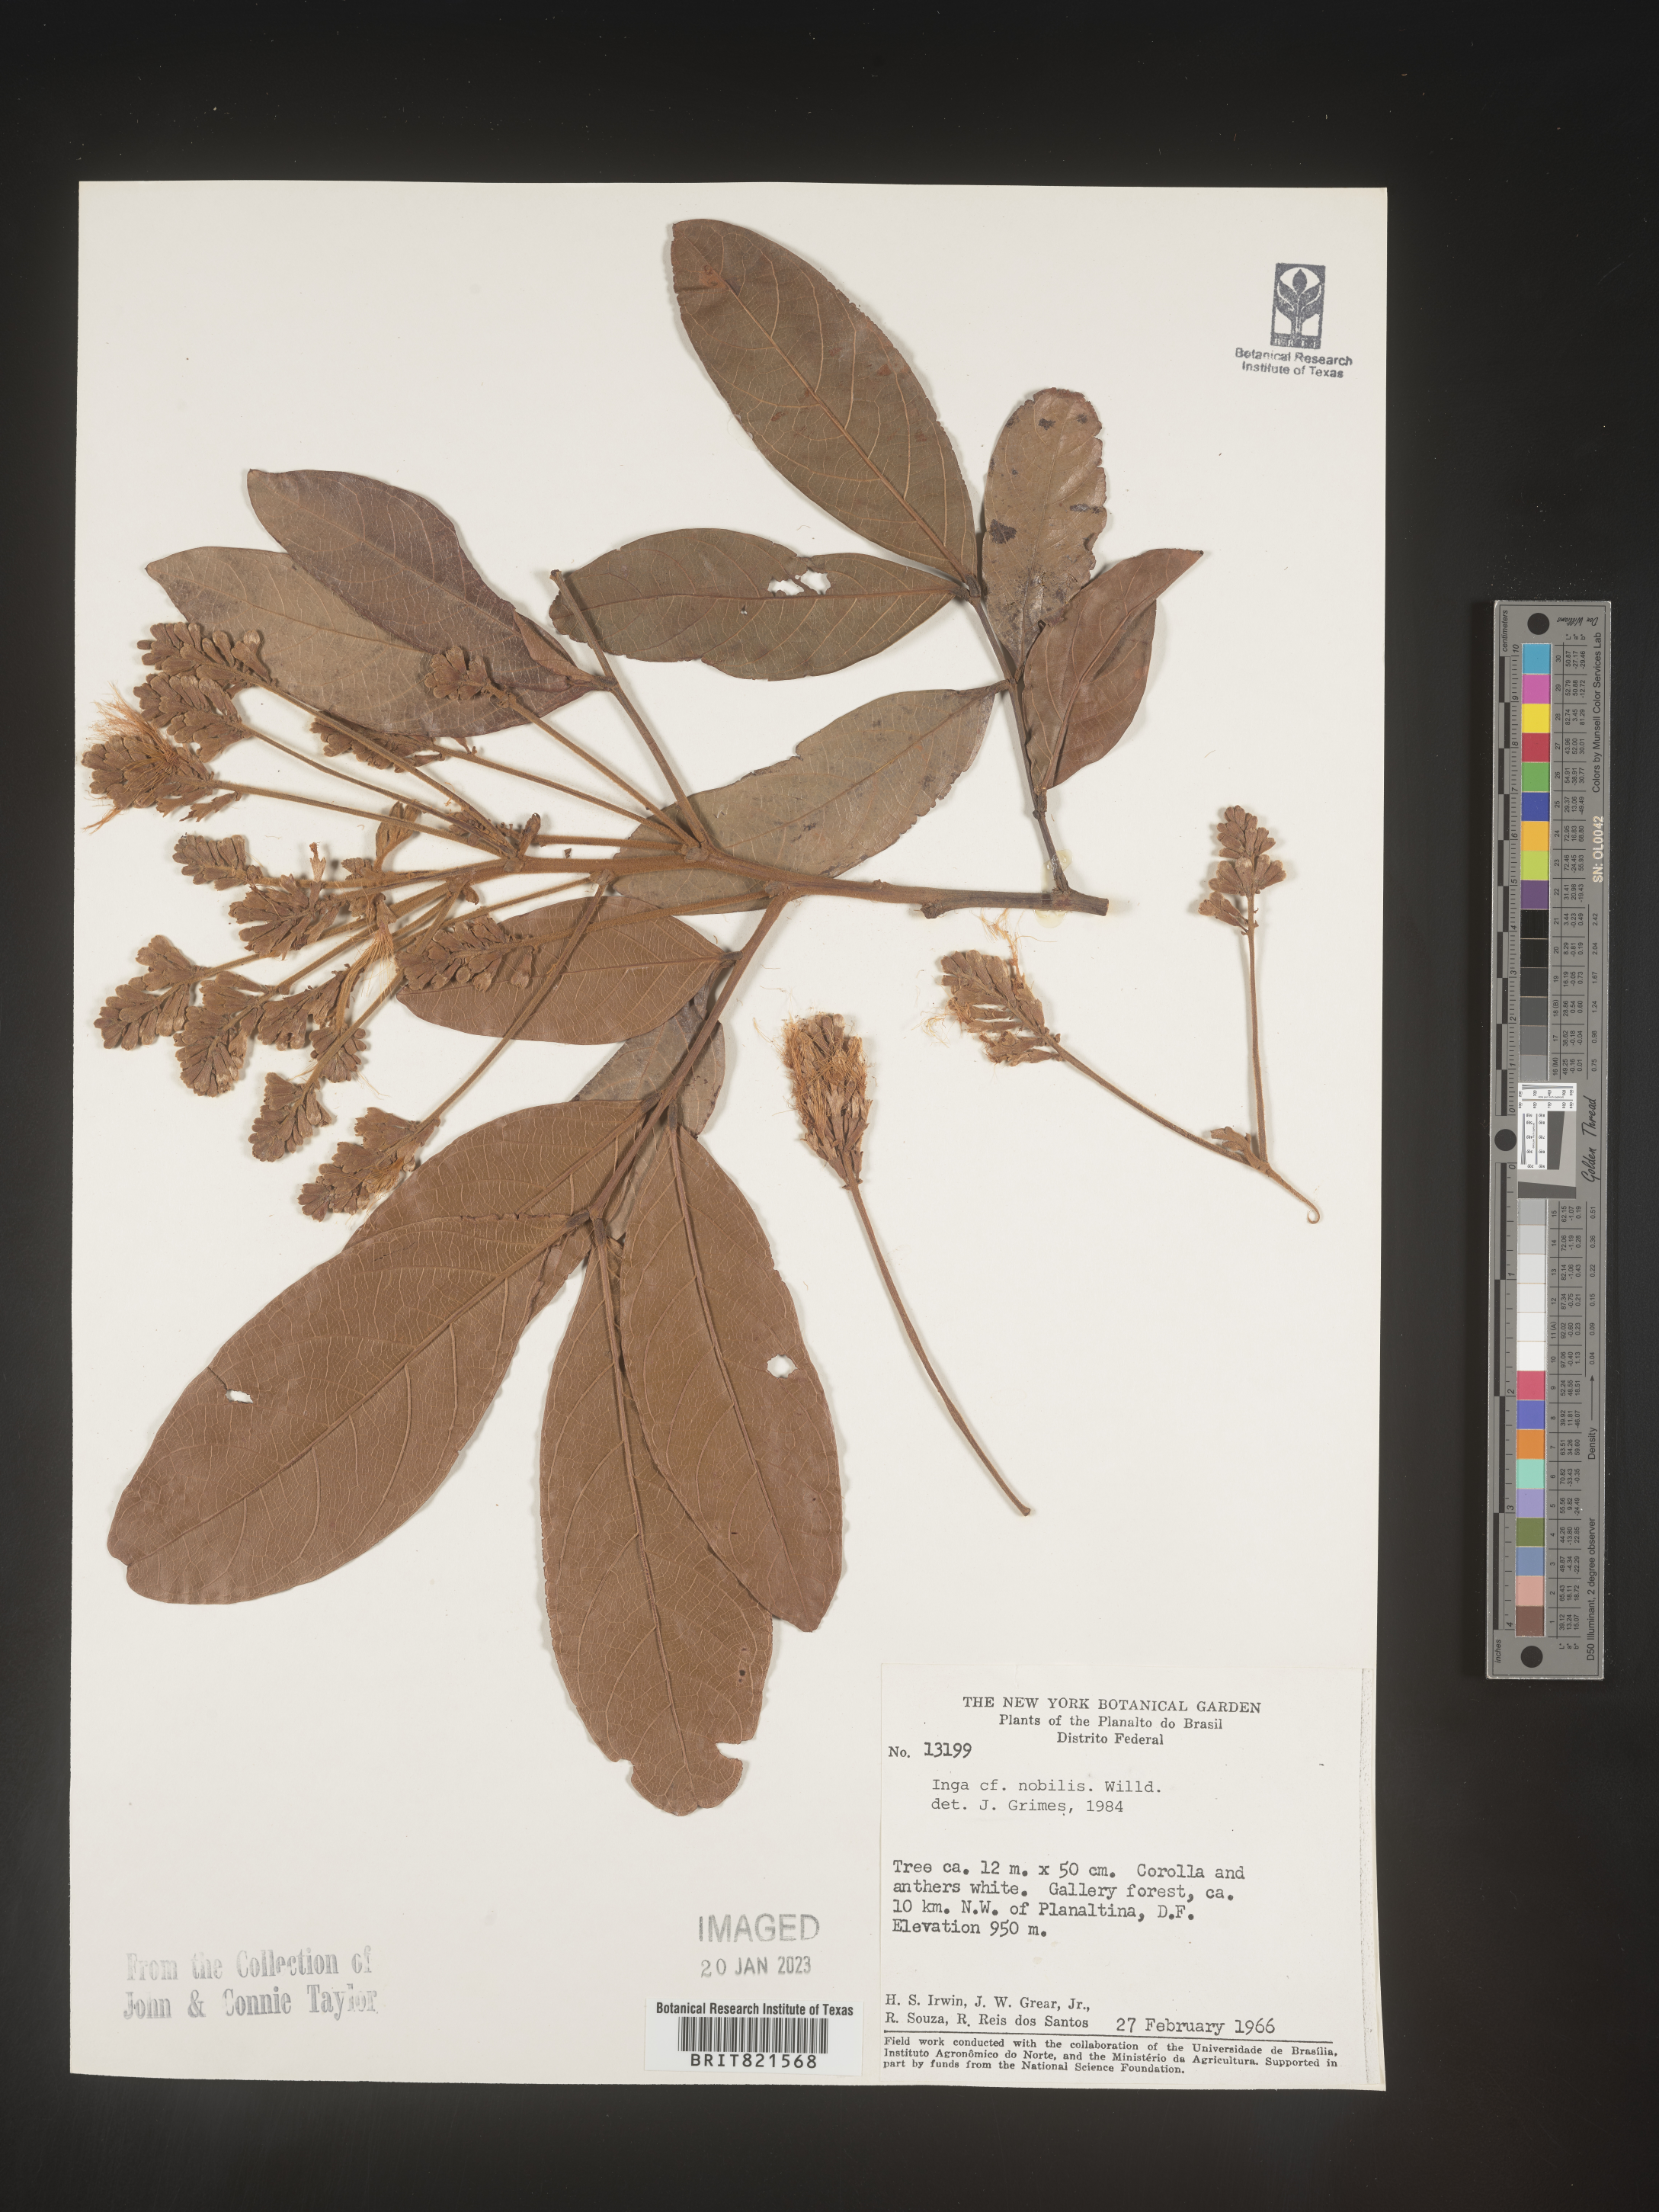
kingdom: Plantae
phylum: Tracheophyta
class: Magnoliopsida
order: Fabales
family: Fabaceae
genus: Inga
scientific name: Inga
